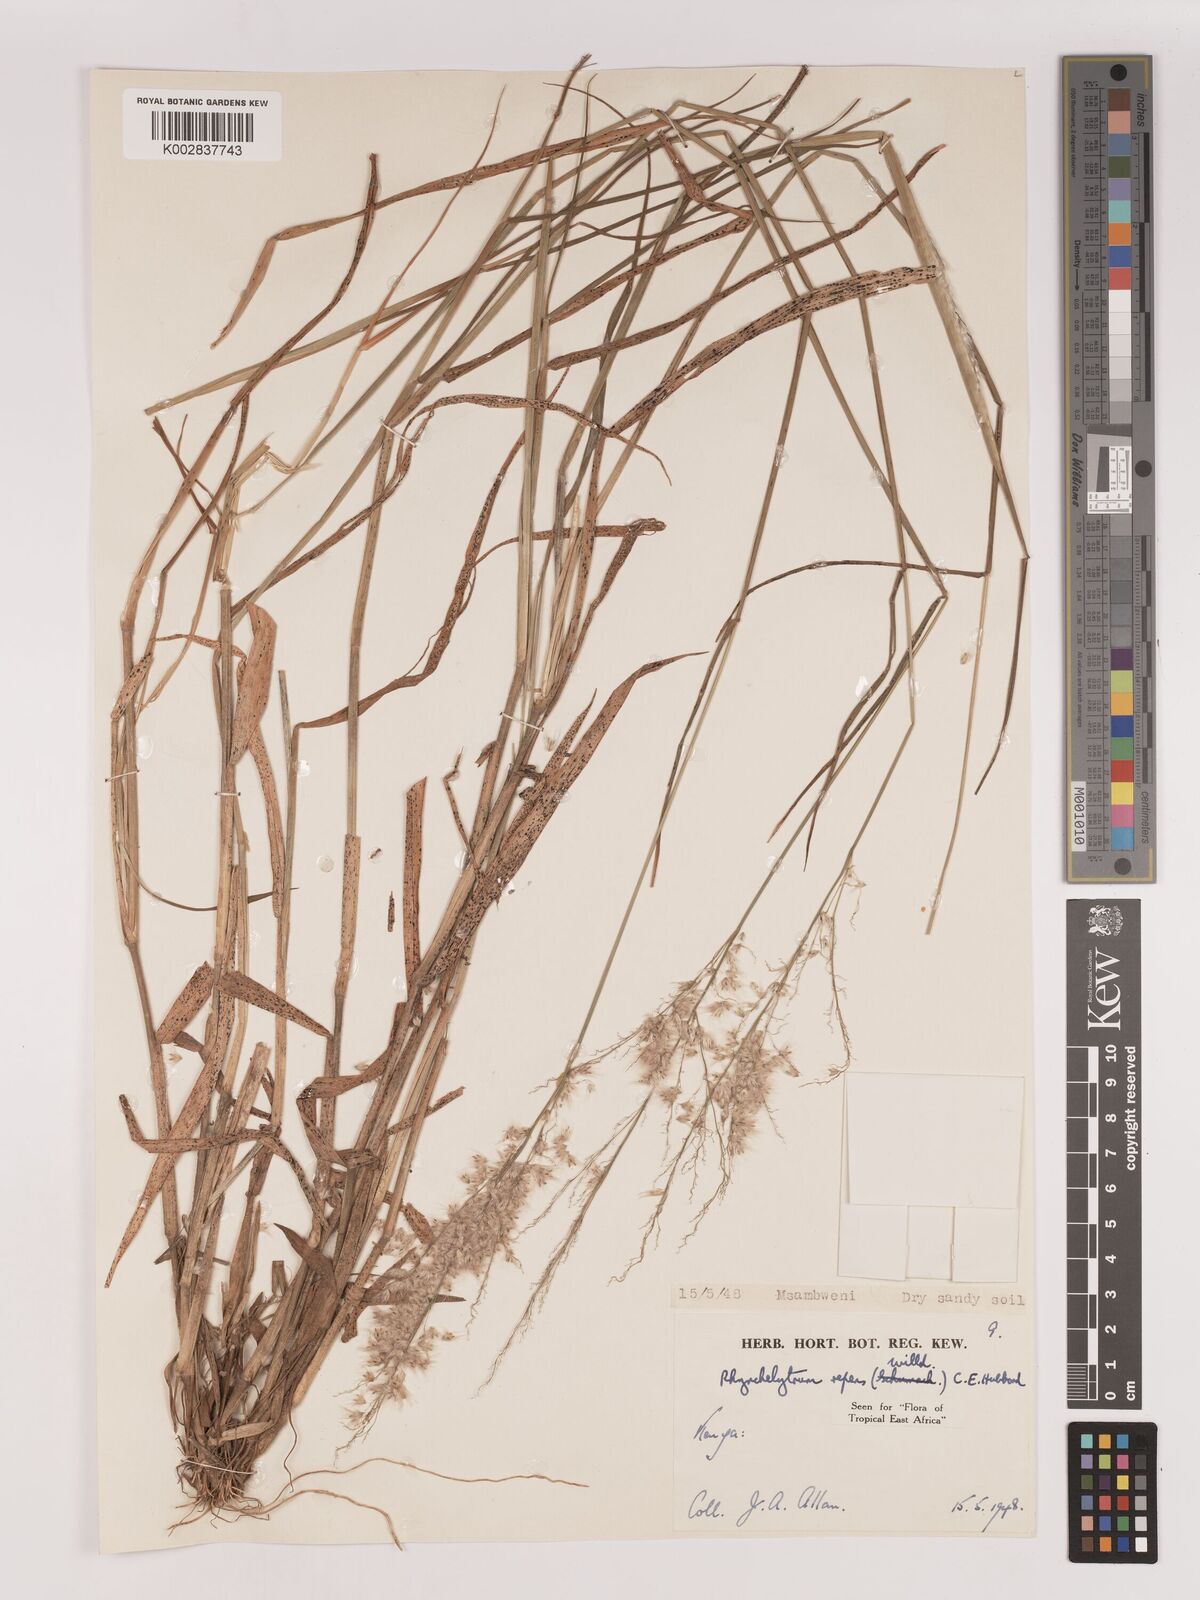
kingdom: Plantae
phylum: Tracheophyta
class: Liliopsida
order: Poales
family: Poaceae
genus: Melinis
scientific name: Melinis repens
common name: Rose natal grass
